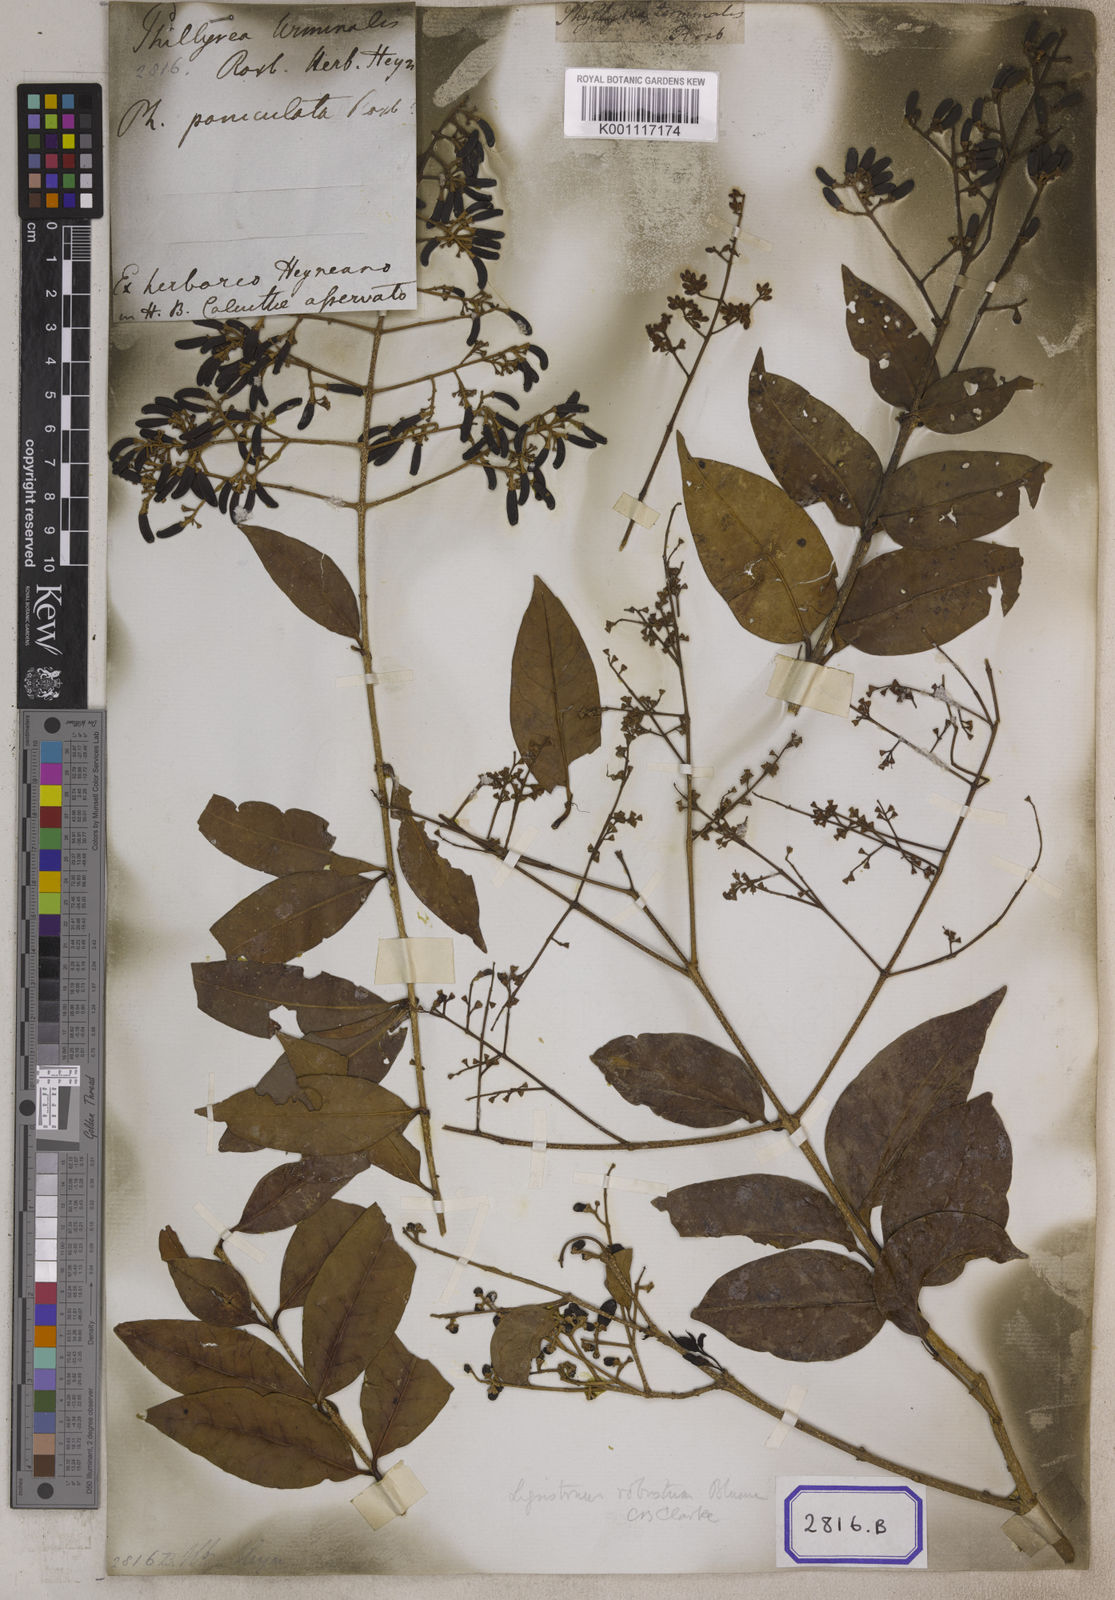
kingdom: Plantae
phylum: Tracheophyta
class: Magnoliopsida
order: Lamiales
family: Oleaceae
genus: Olea
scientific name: Olea
